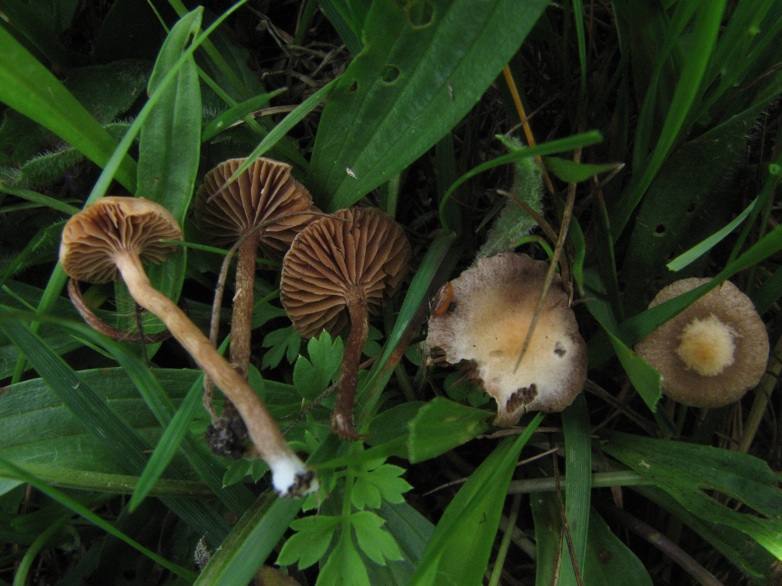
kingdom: Fungi
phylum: Basidiomycota
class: Agaricomycetes
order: Agaricales
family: Strophariaceae
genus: Deconica
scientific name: Deconica micropora
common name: småsporet stråhat
